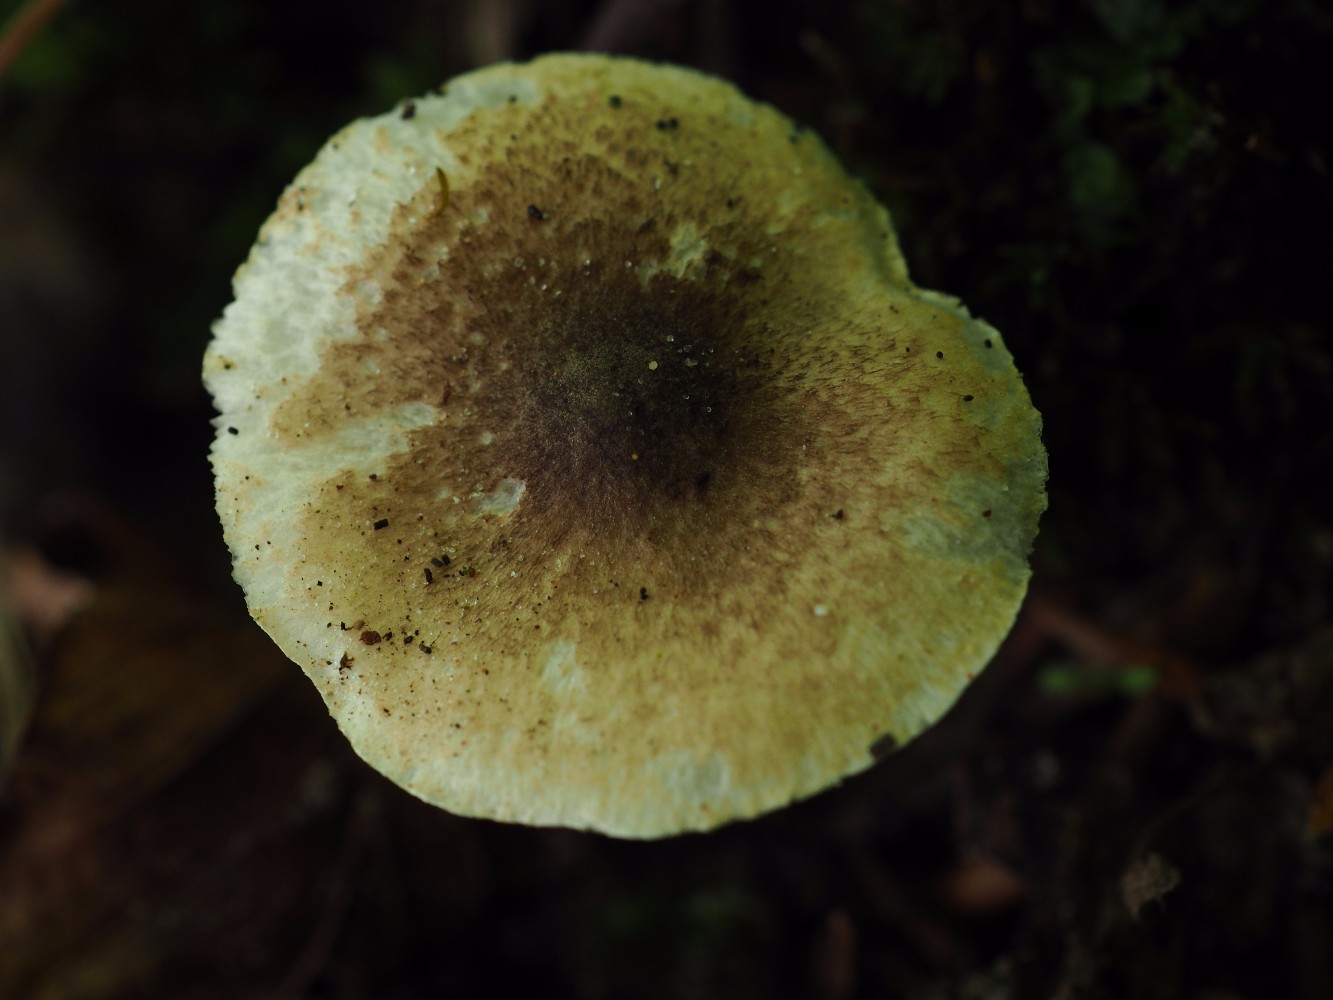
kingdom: Fungi
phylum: Basidiomycota
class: Agaricomycetes
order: Agaricales
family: Agaricaceae
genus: Leucocoprinus
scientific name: Leucocoprinus straminellus
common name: rustbrun parasolhat
